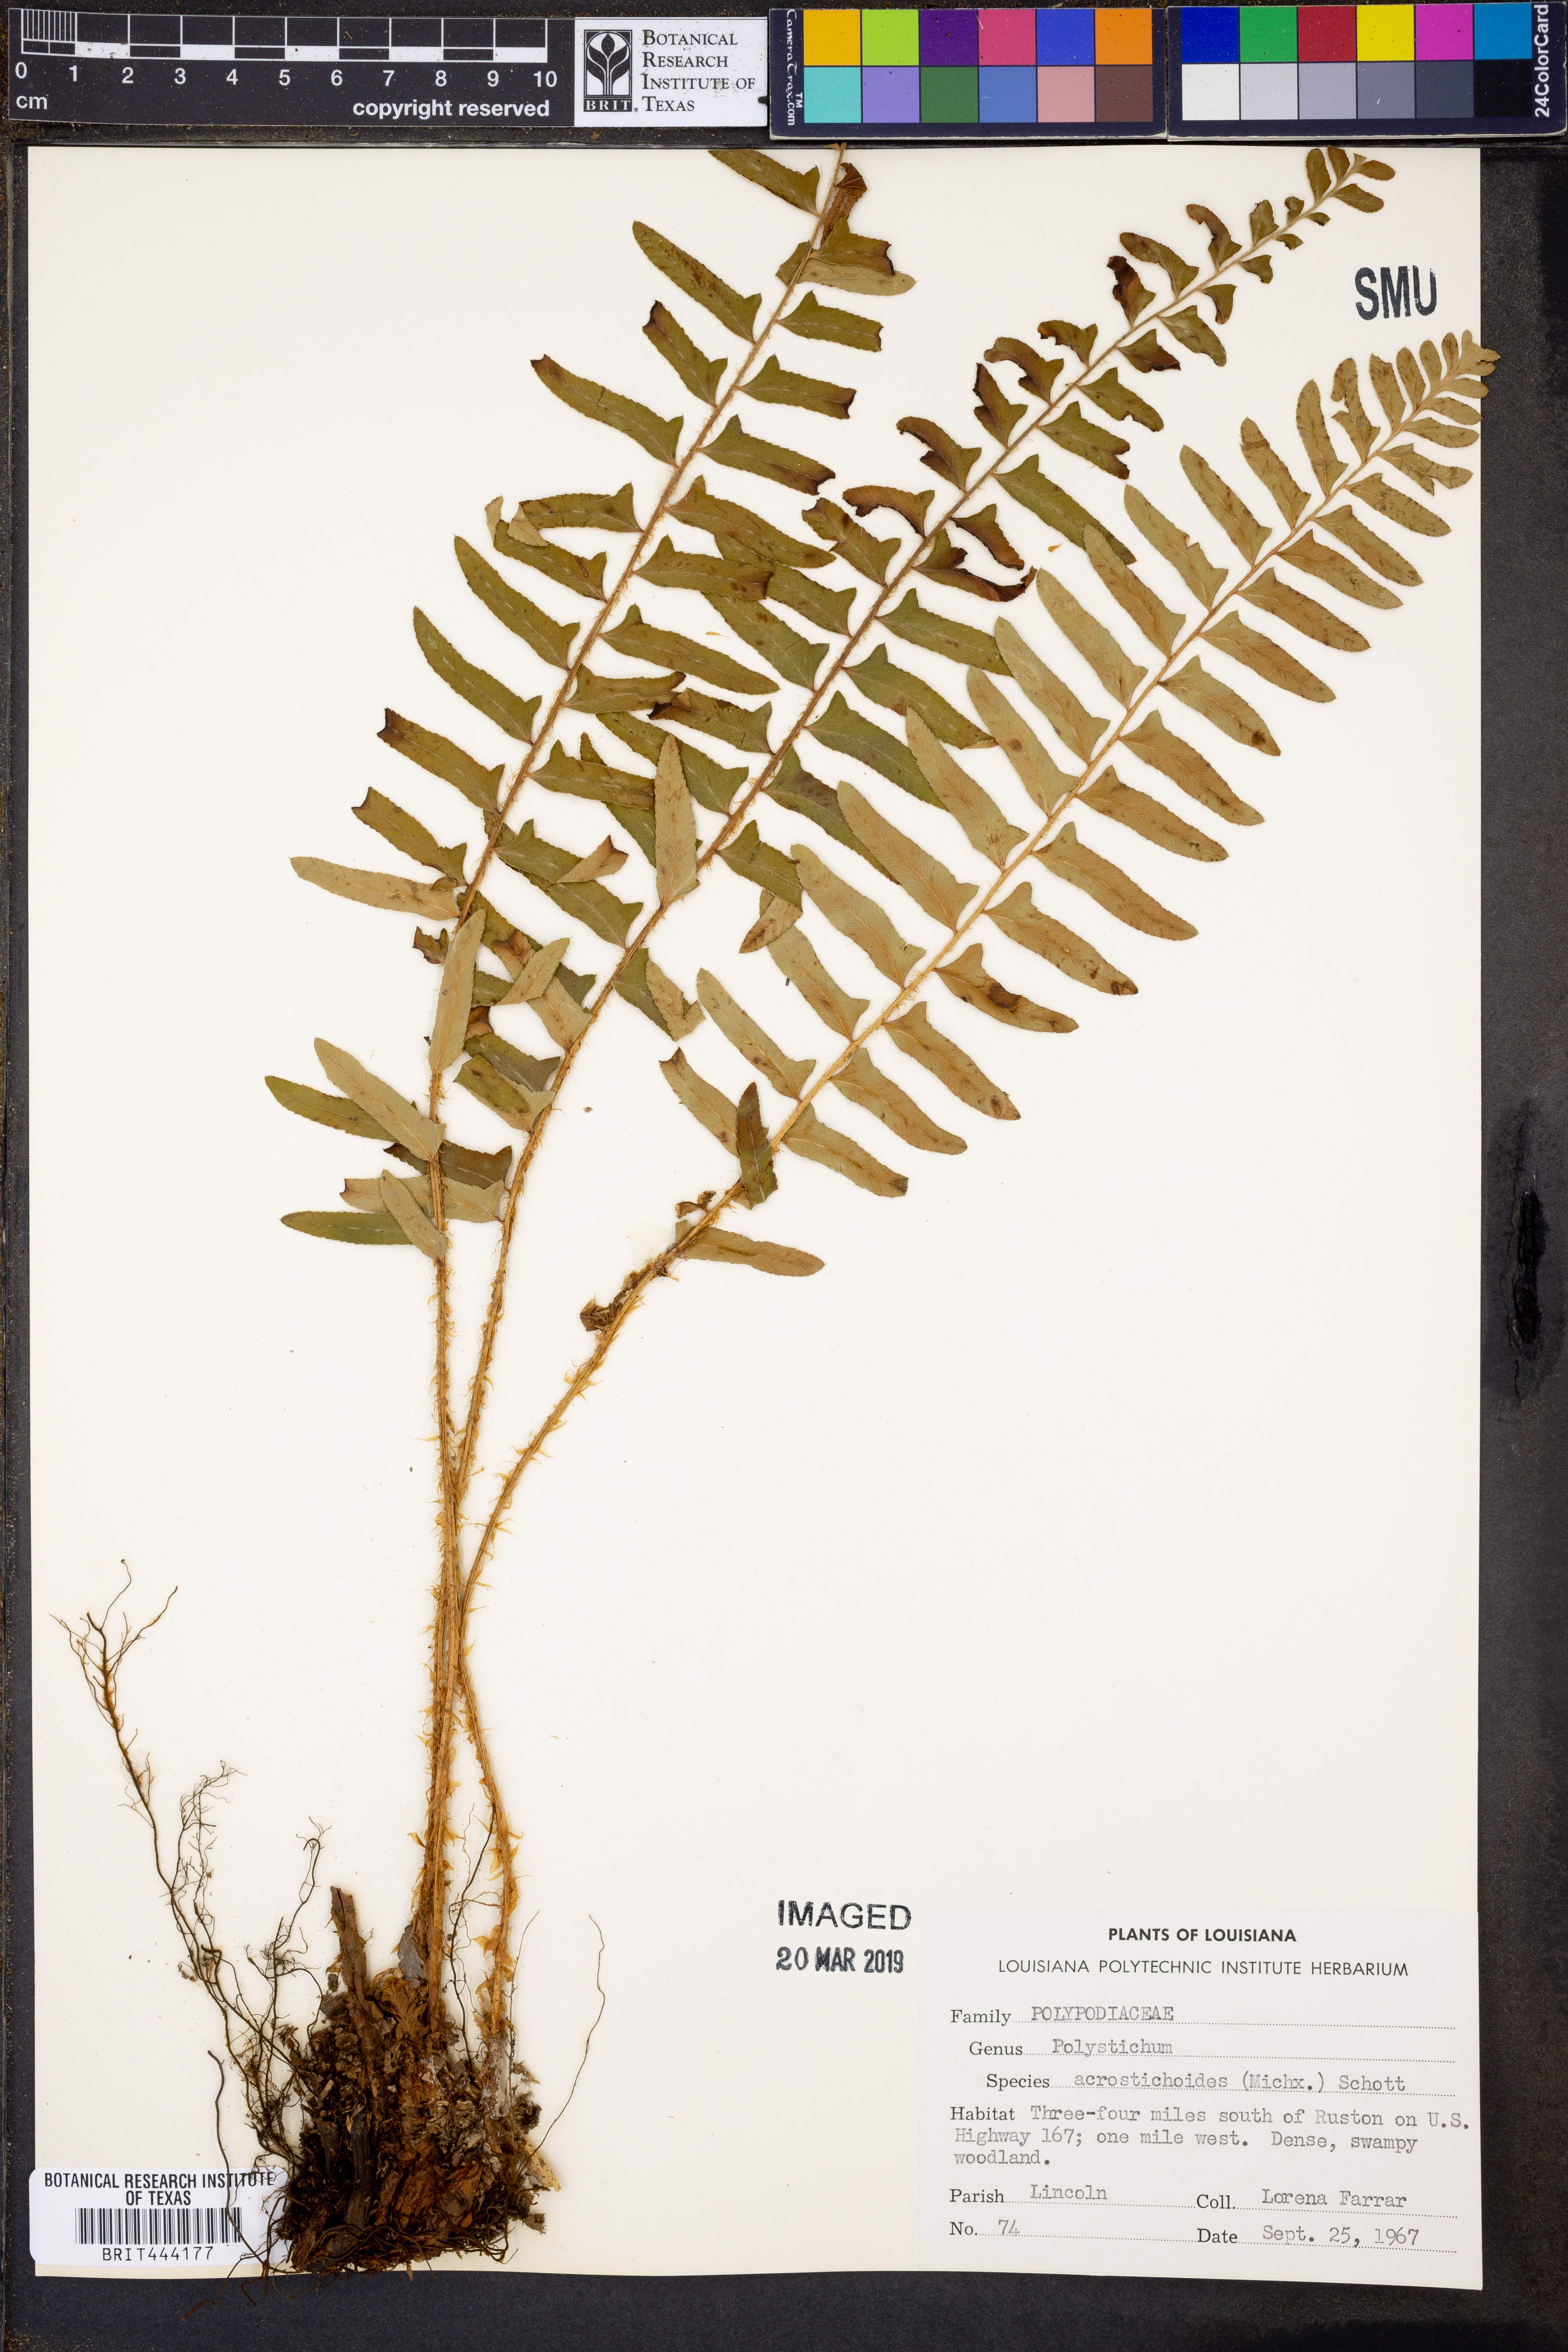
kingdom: Plantae
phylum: Tracheophyta
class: Polypodiopsida
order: Polypodiales
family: Dryopteridaceae
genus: Polystichum
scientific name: Polystichum acrostichoides
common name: Christmas fern
